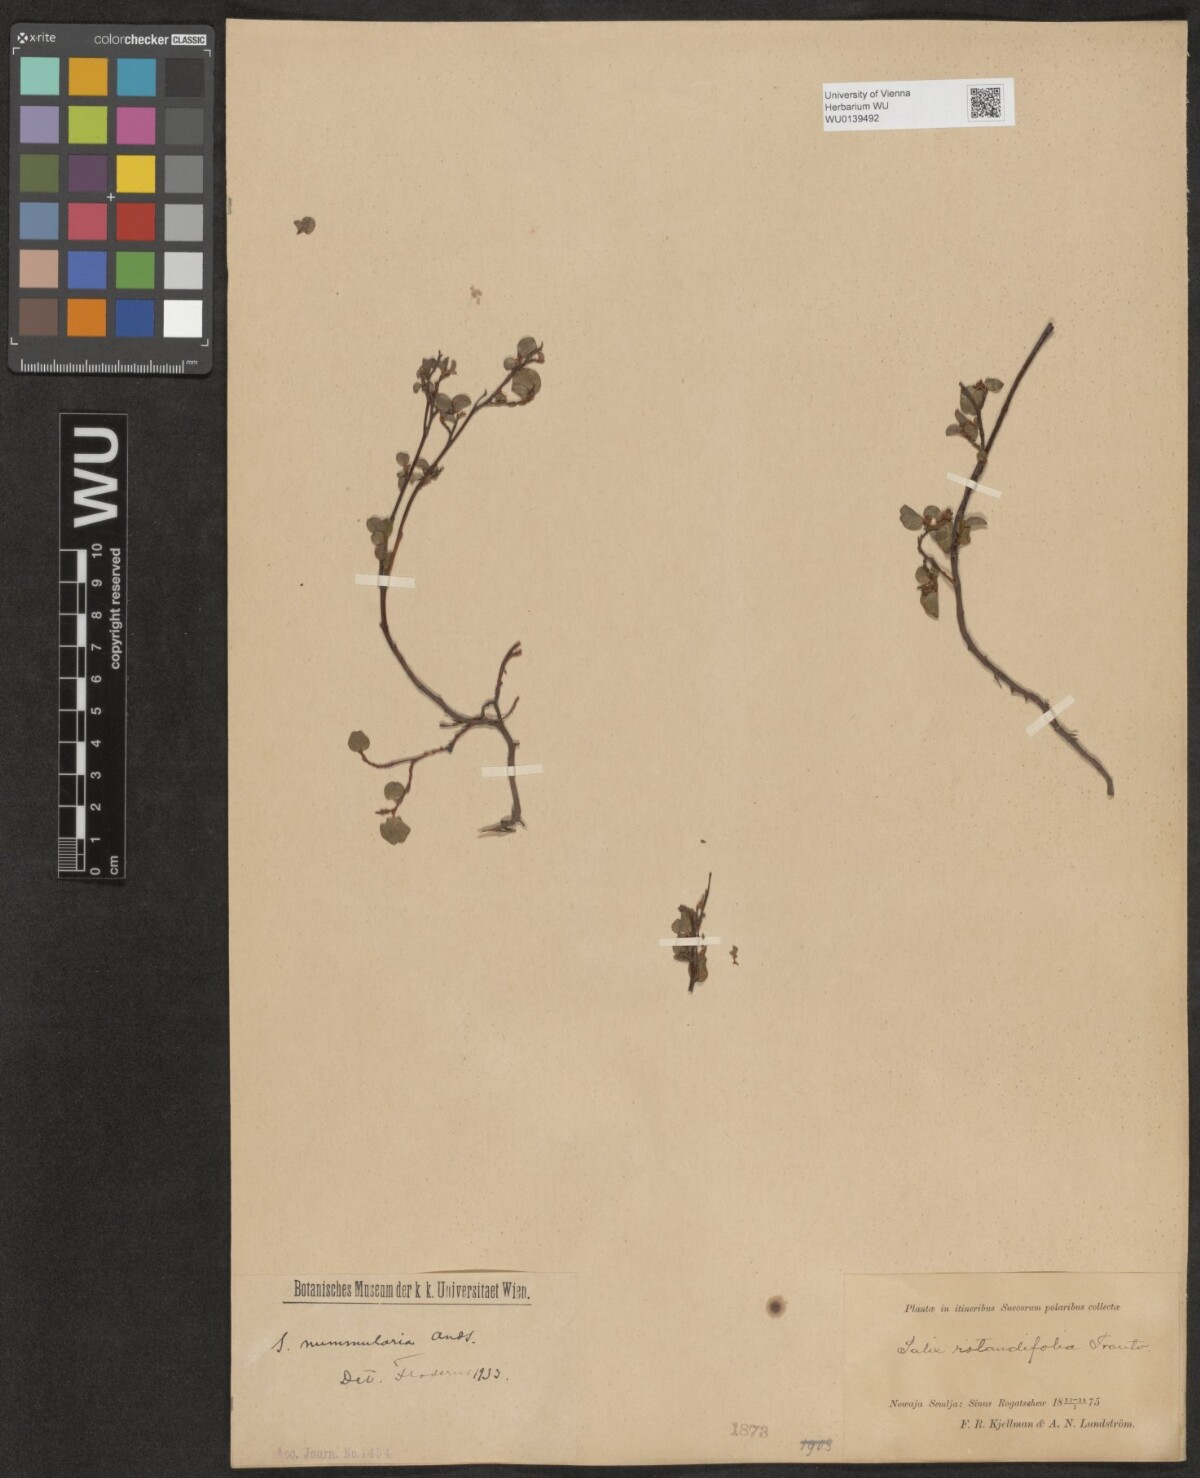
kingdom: Plantae
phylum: Tracheophyta
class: Magnoliopsida
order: Malpighiales
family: Salicaceae
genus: Salix
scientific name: Salix rotundifolia
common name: Least willow
